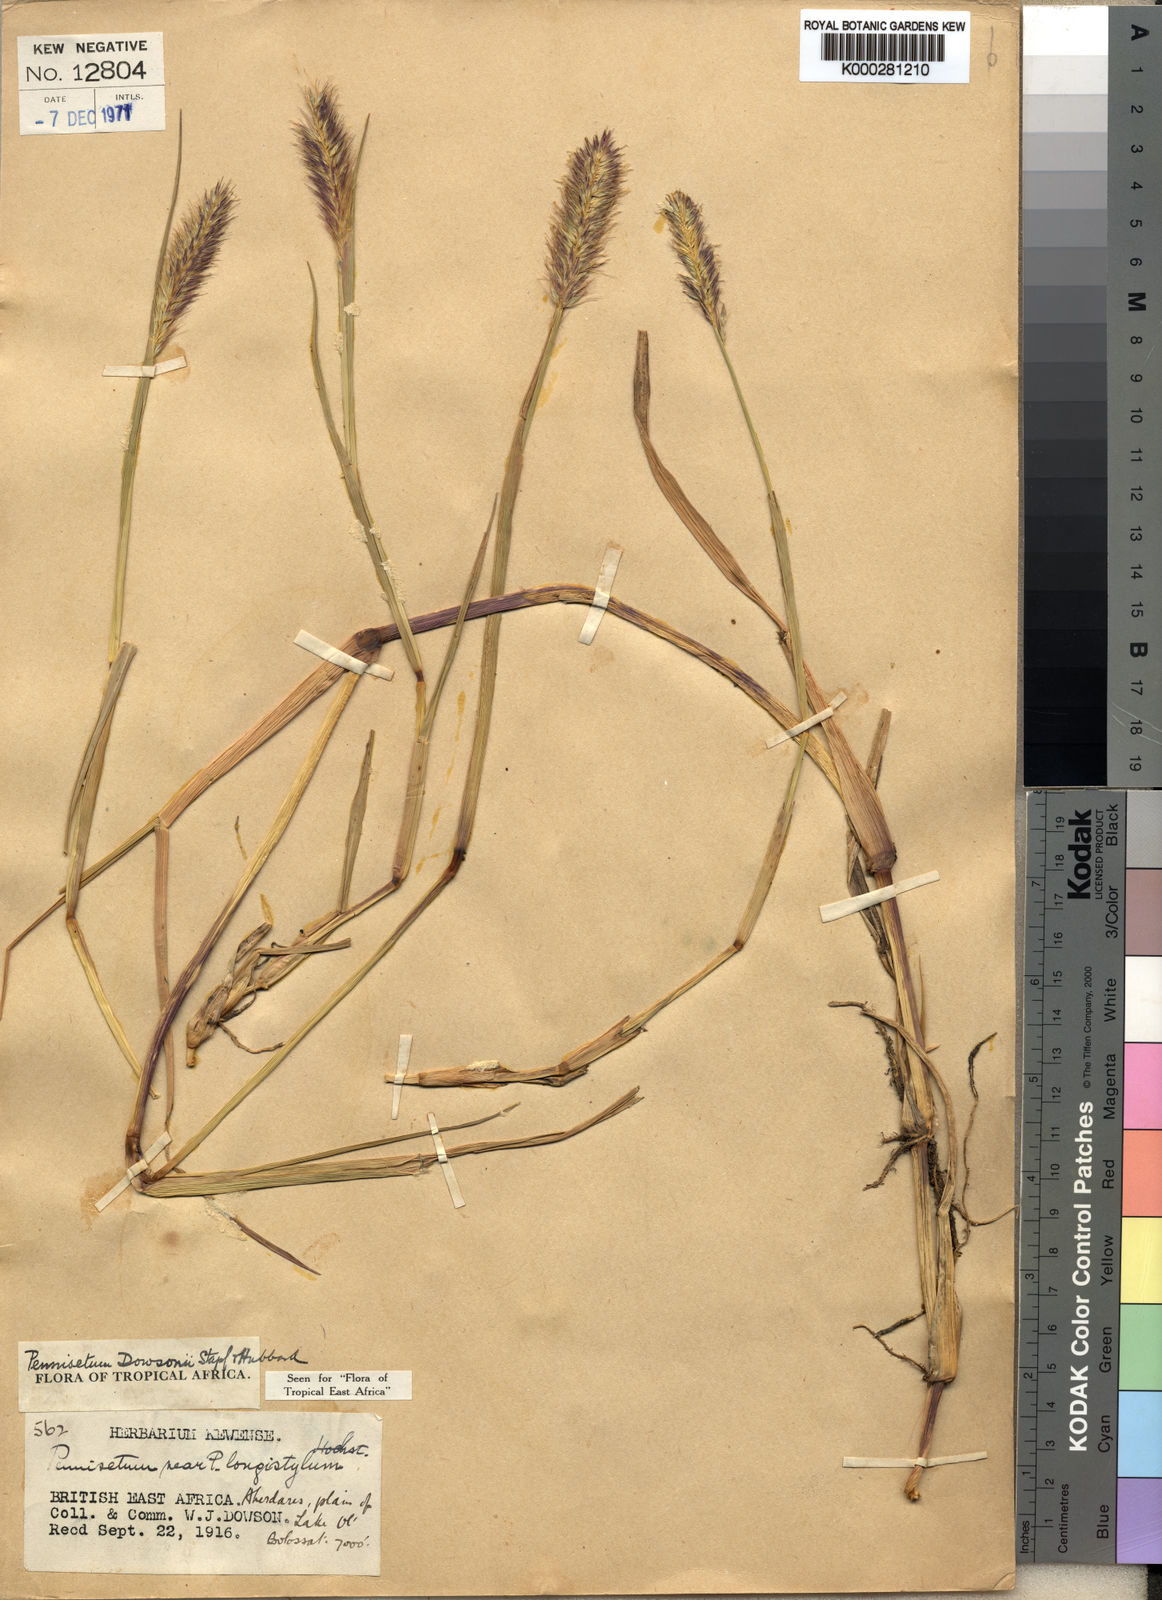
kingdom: Plantae
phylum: Tracheophyta
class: Liliopsida
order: Poales
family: Poaceae
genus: Cenchrus
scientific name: Cenchrus riparius
